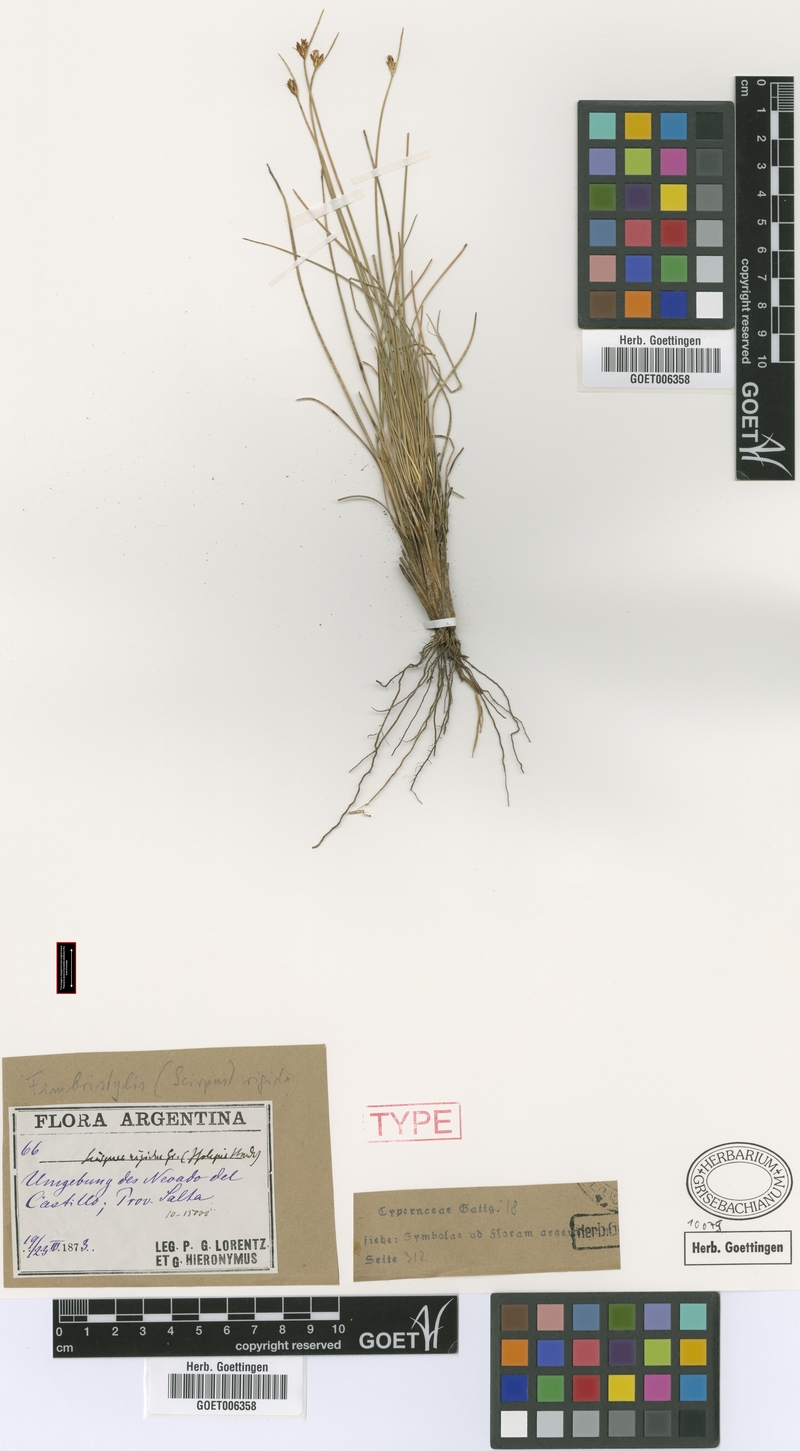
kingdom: Plantae
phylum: Tracheophyta
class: Liliopsida
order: Poales
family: Cyperaceae
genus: Schoenoplectus
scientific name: Schoenoplectus californicus
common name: California bulrush
